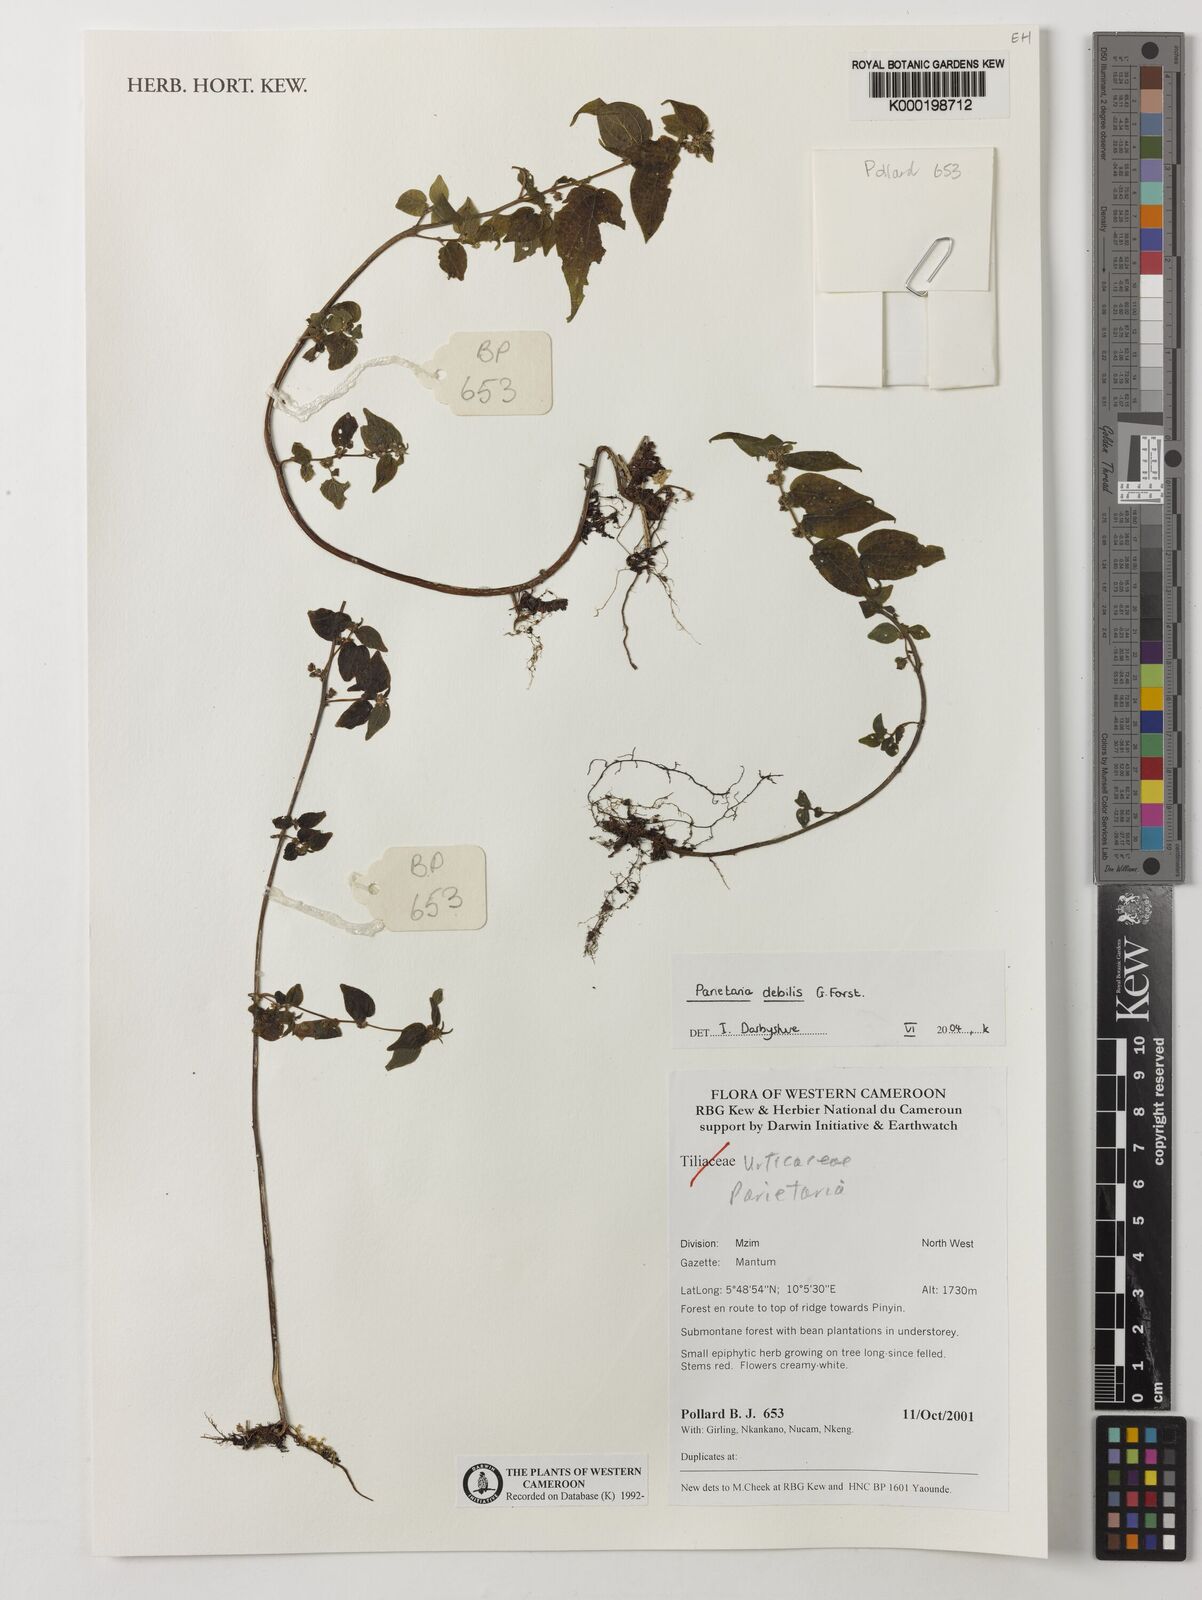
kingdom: Plantae
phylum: Tracheophyta
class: Magnoliopsida
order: Rosales
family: Urticaceae
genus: Parietaria
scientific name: Parietaria debilis
